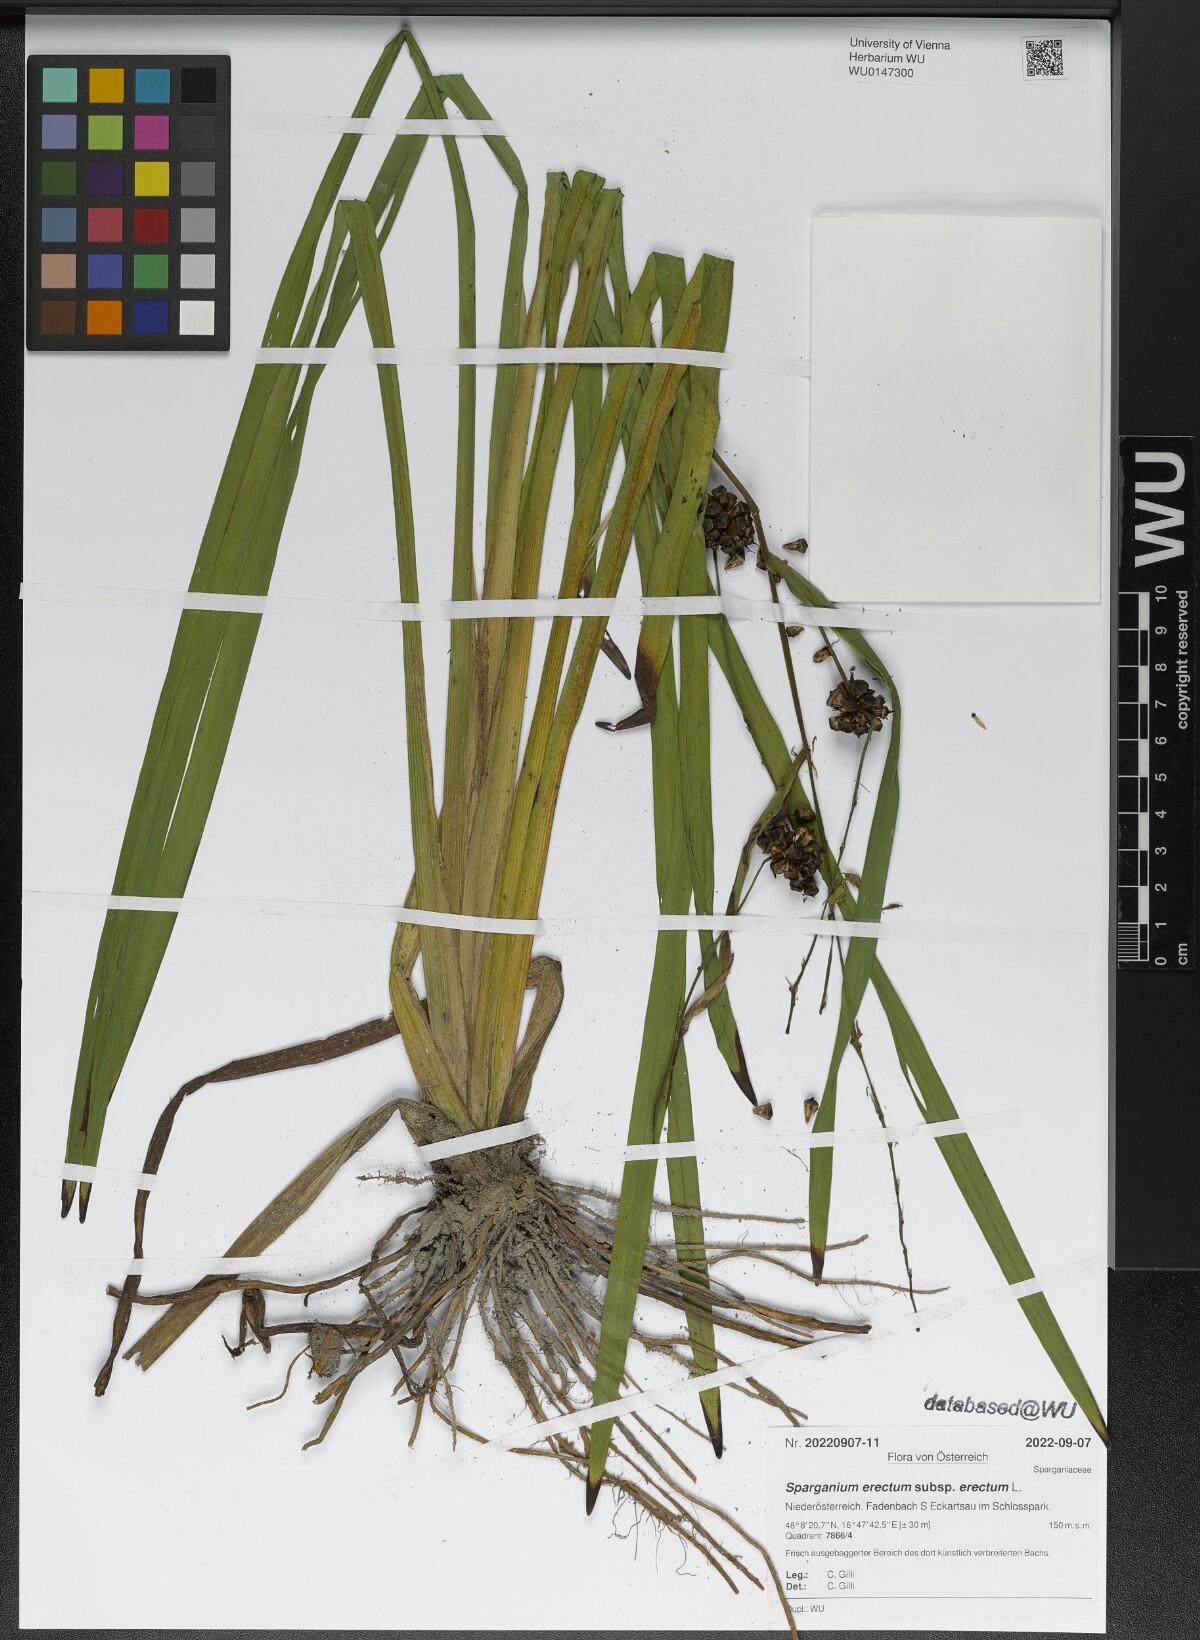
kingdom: Plantae
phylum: Tracheophyta
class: Liliopsida
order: Poales
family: Typhaceae
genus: Sparganium
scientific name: Sparganium erectum
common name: Branched bur-reed
